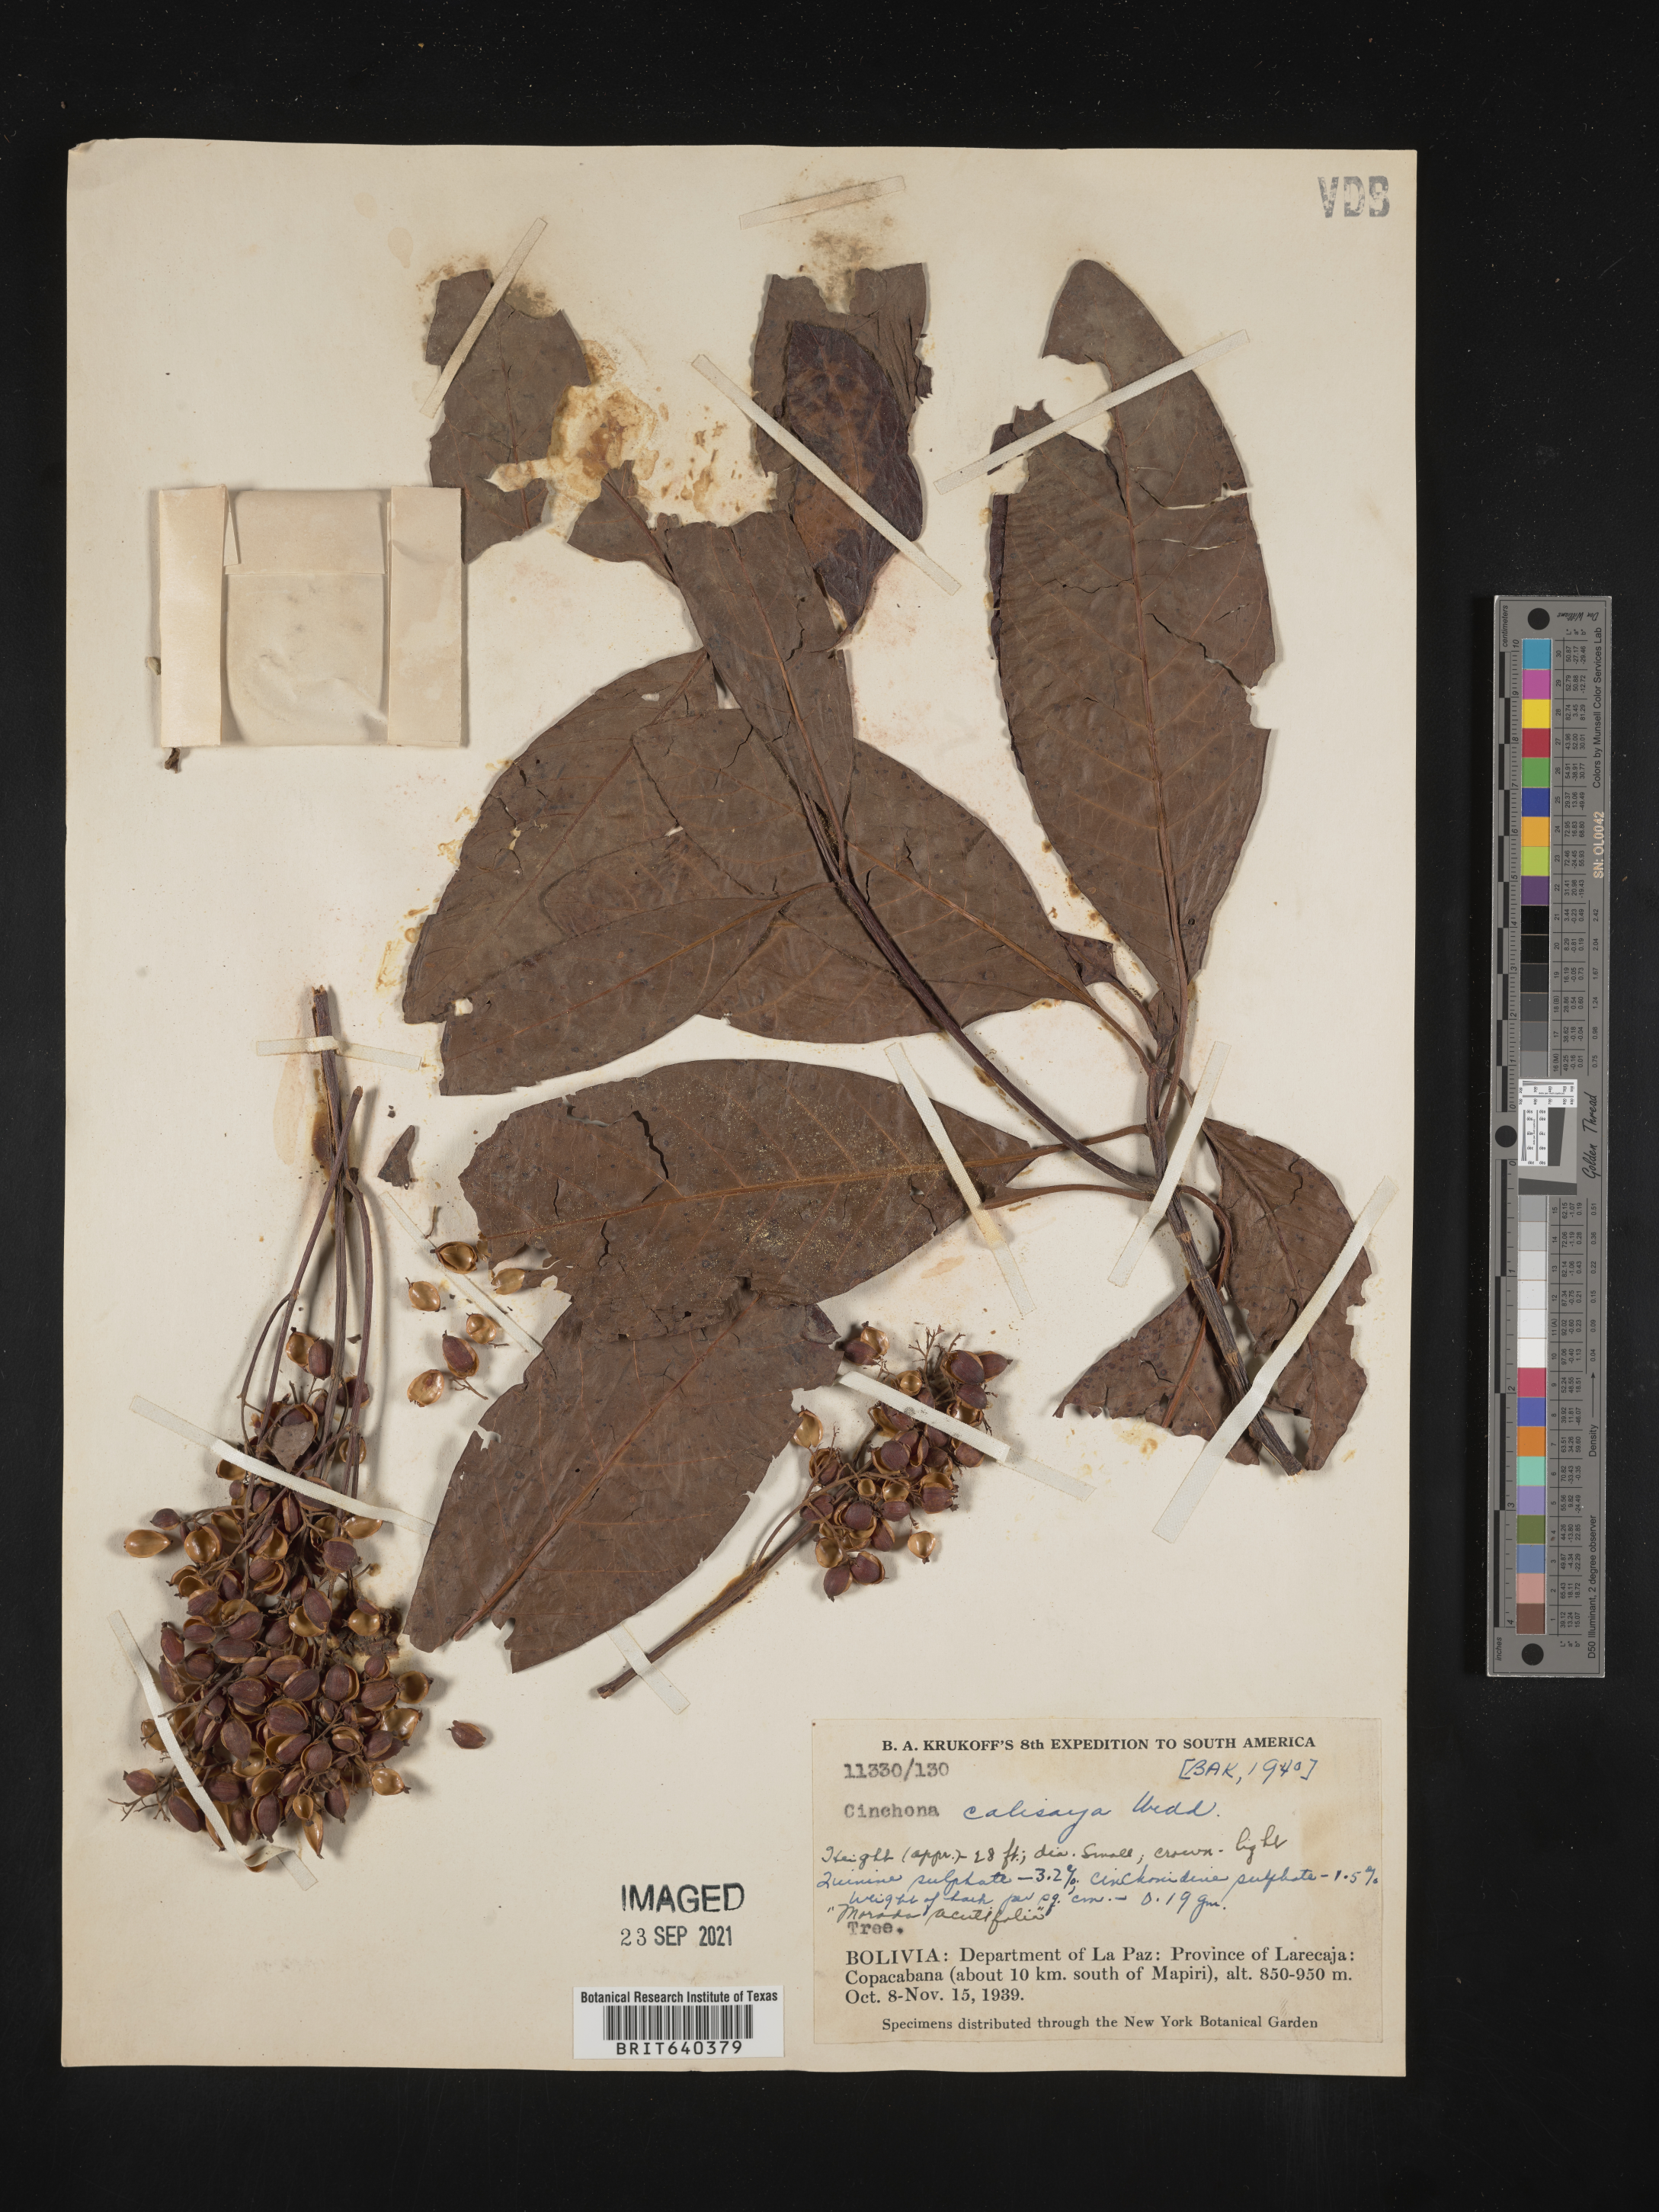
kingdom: Plantae
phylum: Tracheophyta
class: Magnoliopsida
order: Gentianales
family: Rubiaceae
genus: Cinchona
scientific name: Cinchona
